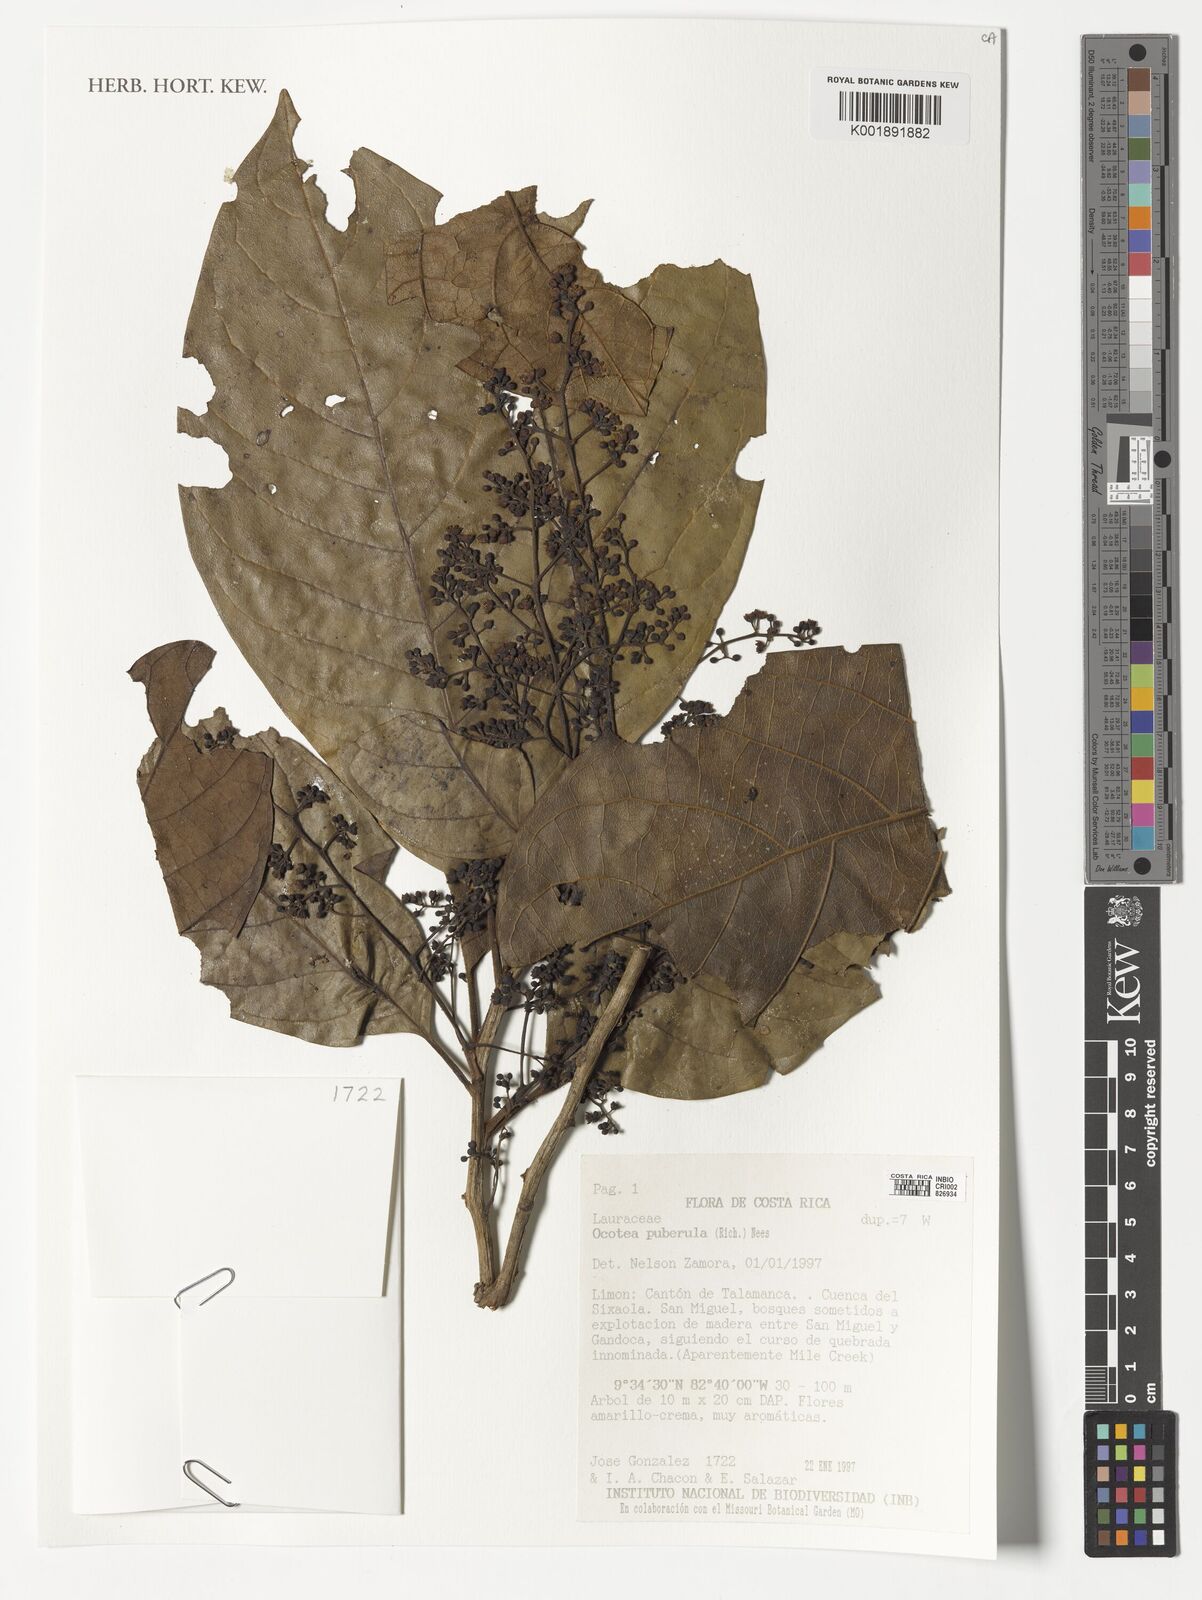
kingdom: Plantae
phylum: Tracheophyta
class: Magnoliopsida
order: Laurales
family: Lauraceae
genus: Ocotea
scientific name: Ocotea puberula
